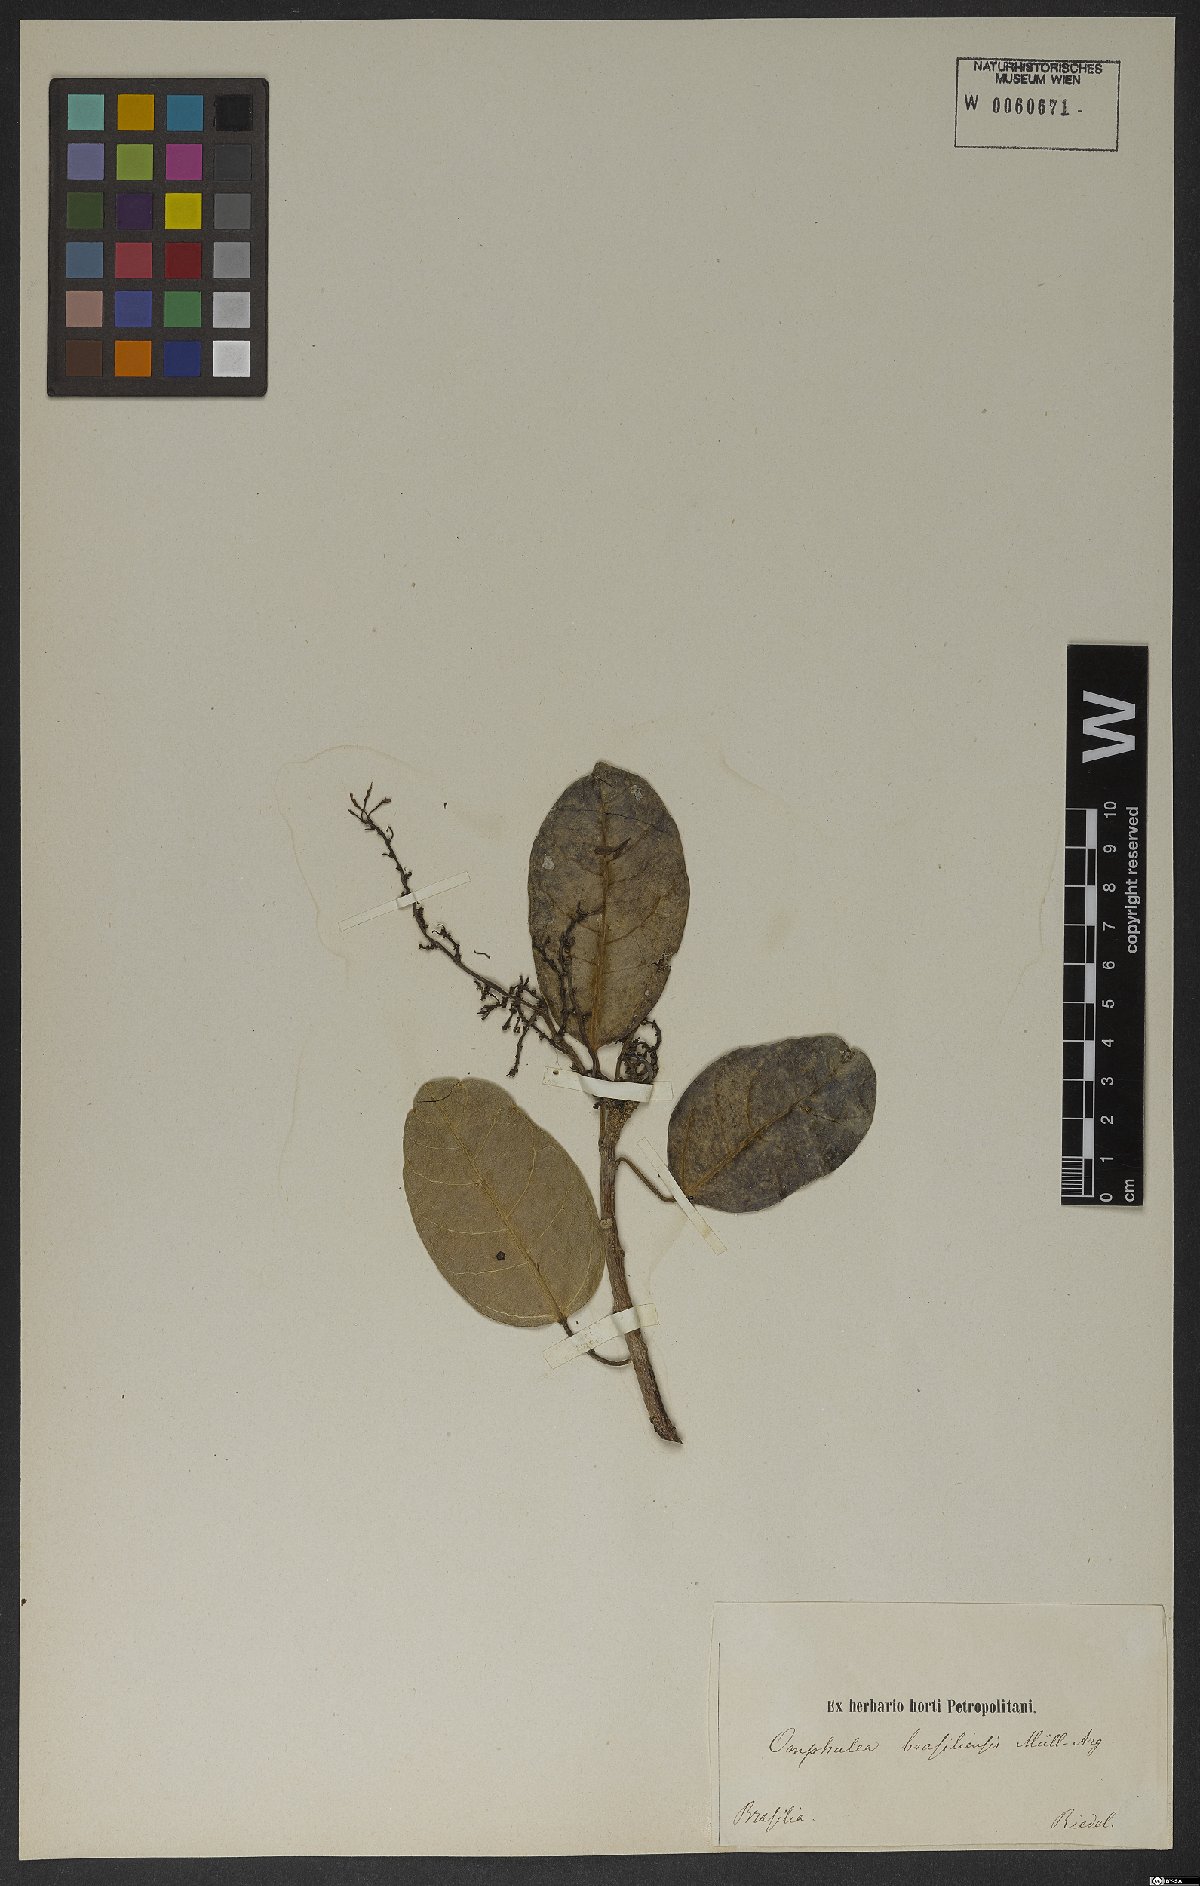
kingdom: Plantae
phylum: Tracheophyta
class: Magnoliopsida
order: Malpighiales
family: Euphorbiaceae
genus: Omphalea
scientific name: Omphalea brasiliensis
